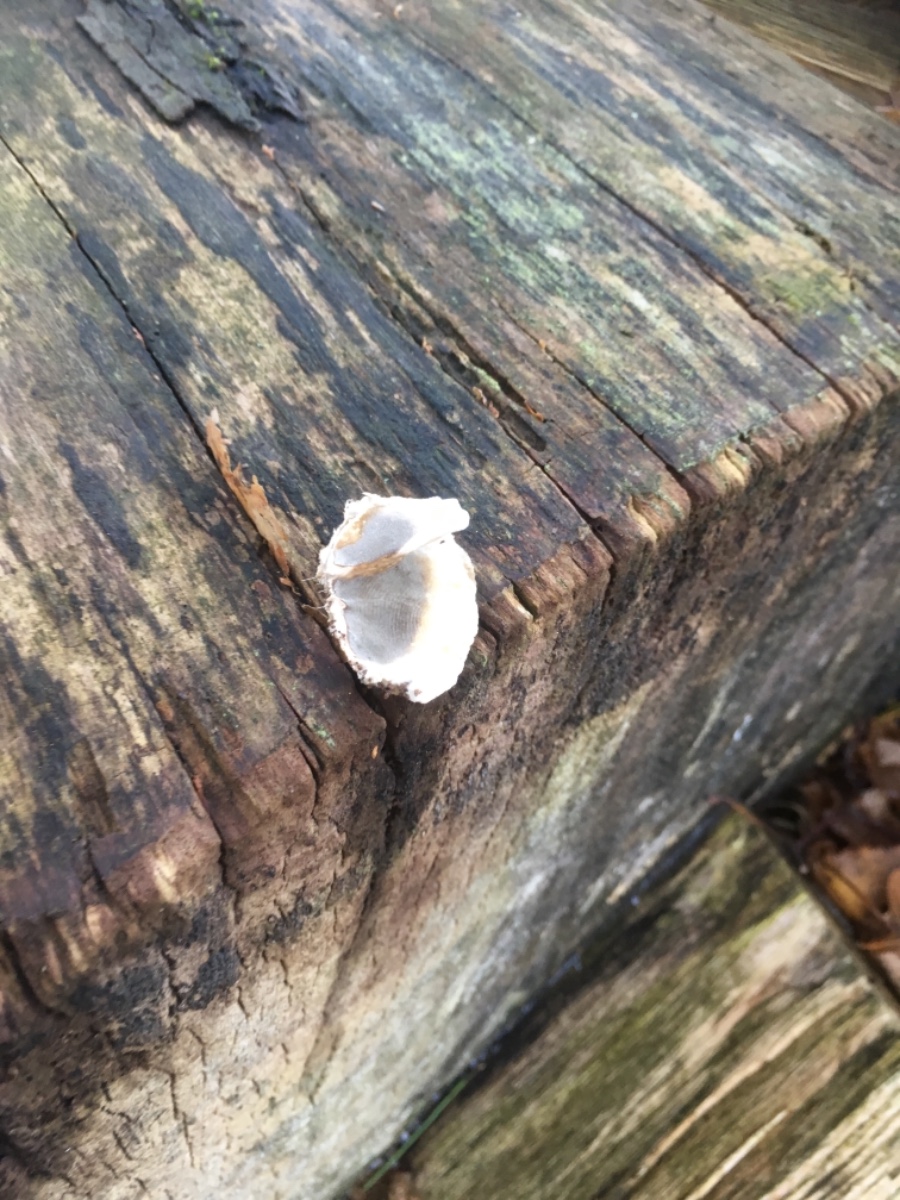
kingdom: Fungi
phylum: Basidiomycota
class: Agaricomycetes
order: Polyporales
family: Phanerochaetaceae
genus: Bjerkandera
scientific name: Bjerkandera adusta
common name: sveden sodporesvamp
